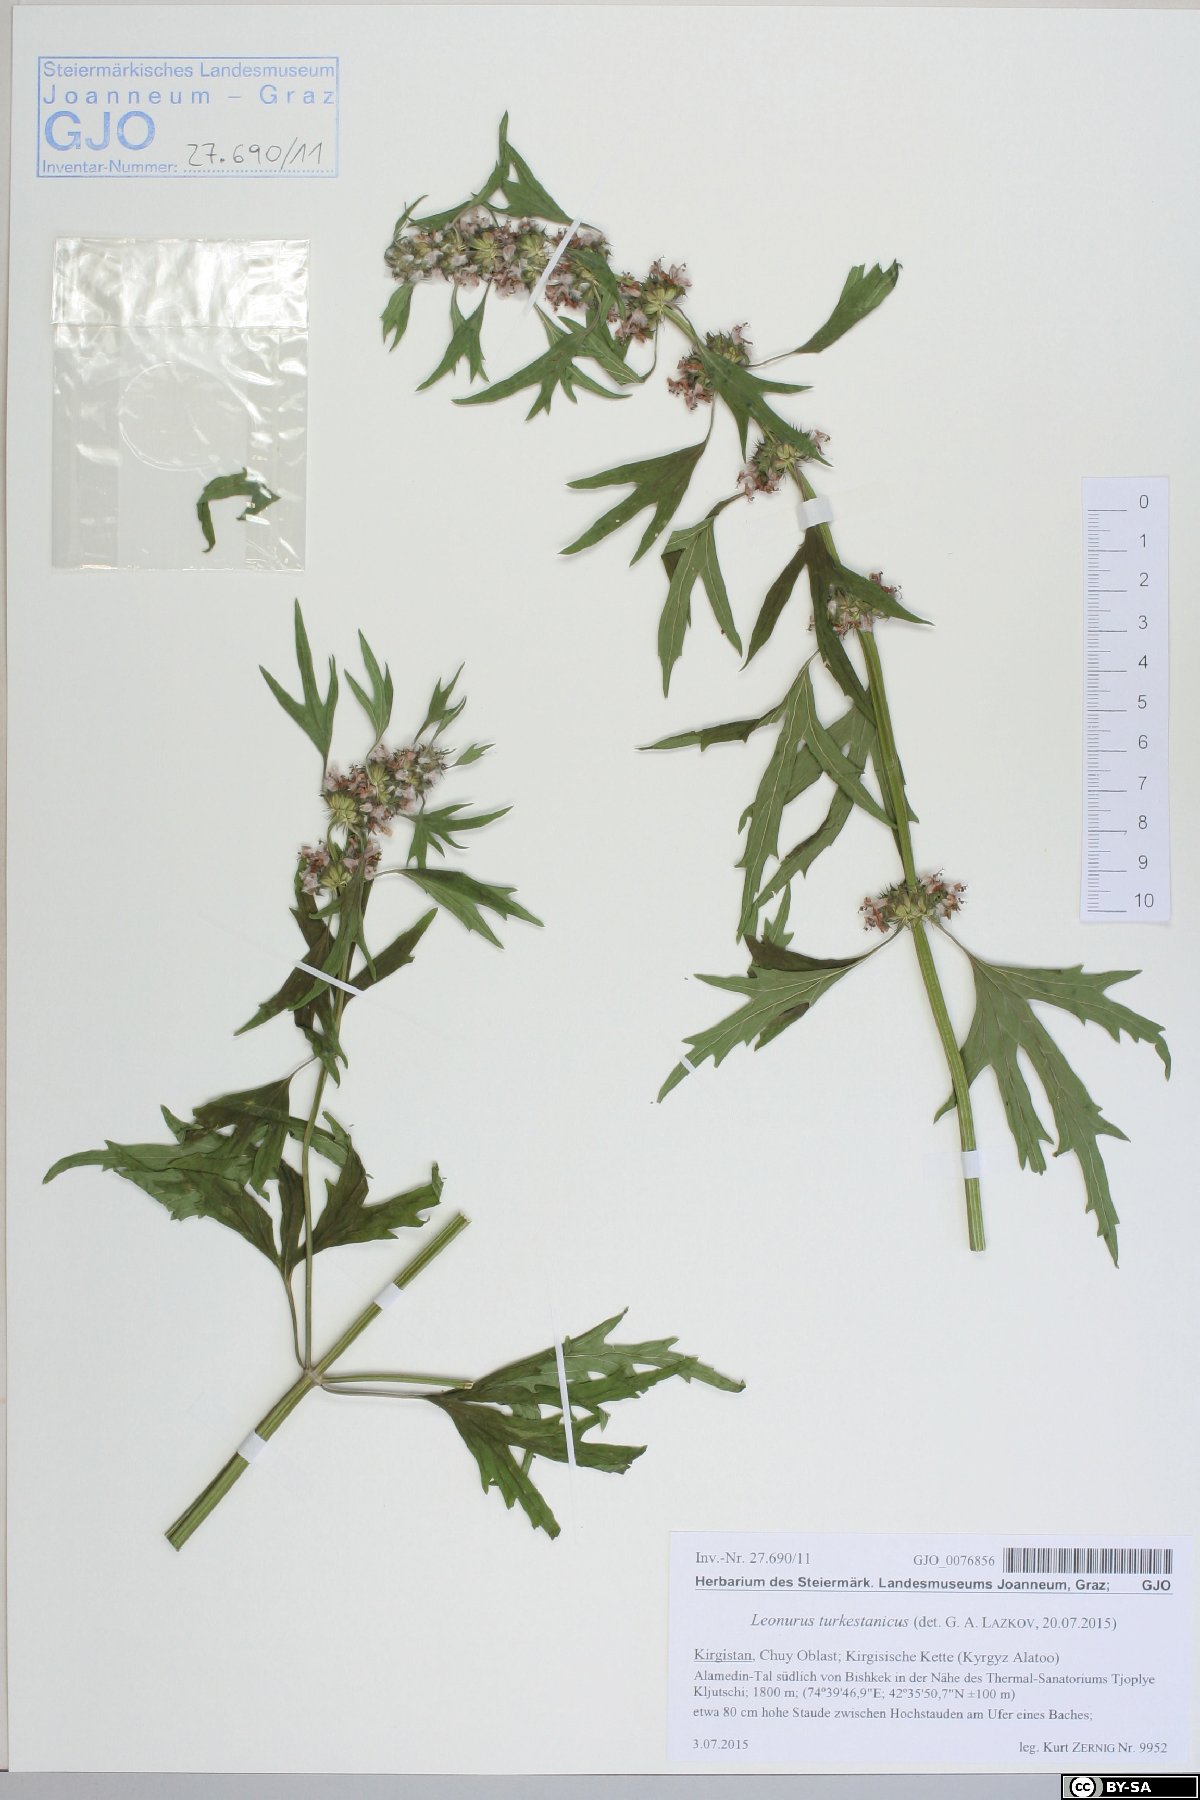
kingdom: Plantae
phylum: Tracheophyta
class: Magnoliopsida
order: Lamiales
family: Lamiaceae
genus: Leonurus
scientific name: Leonurus turkestanicus
